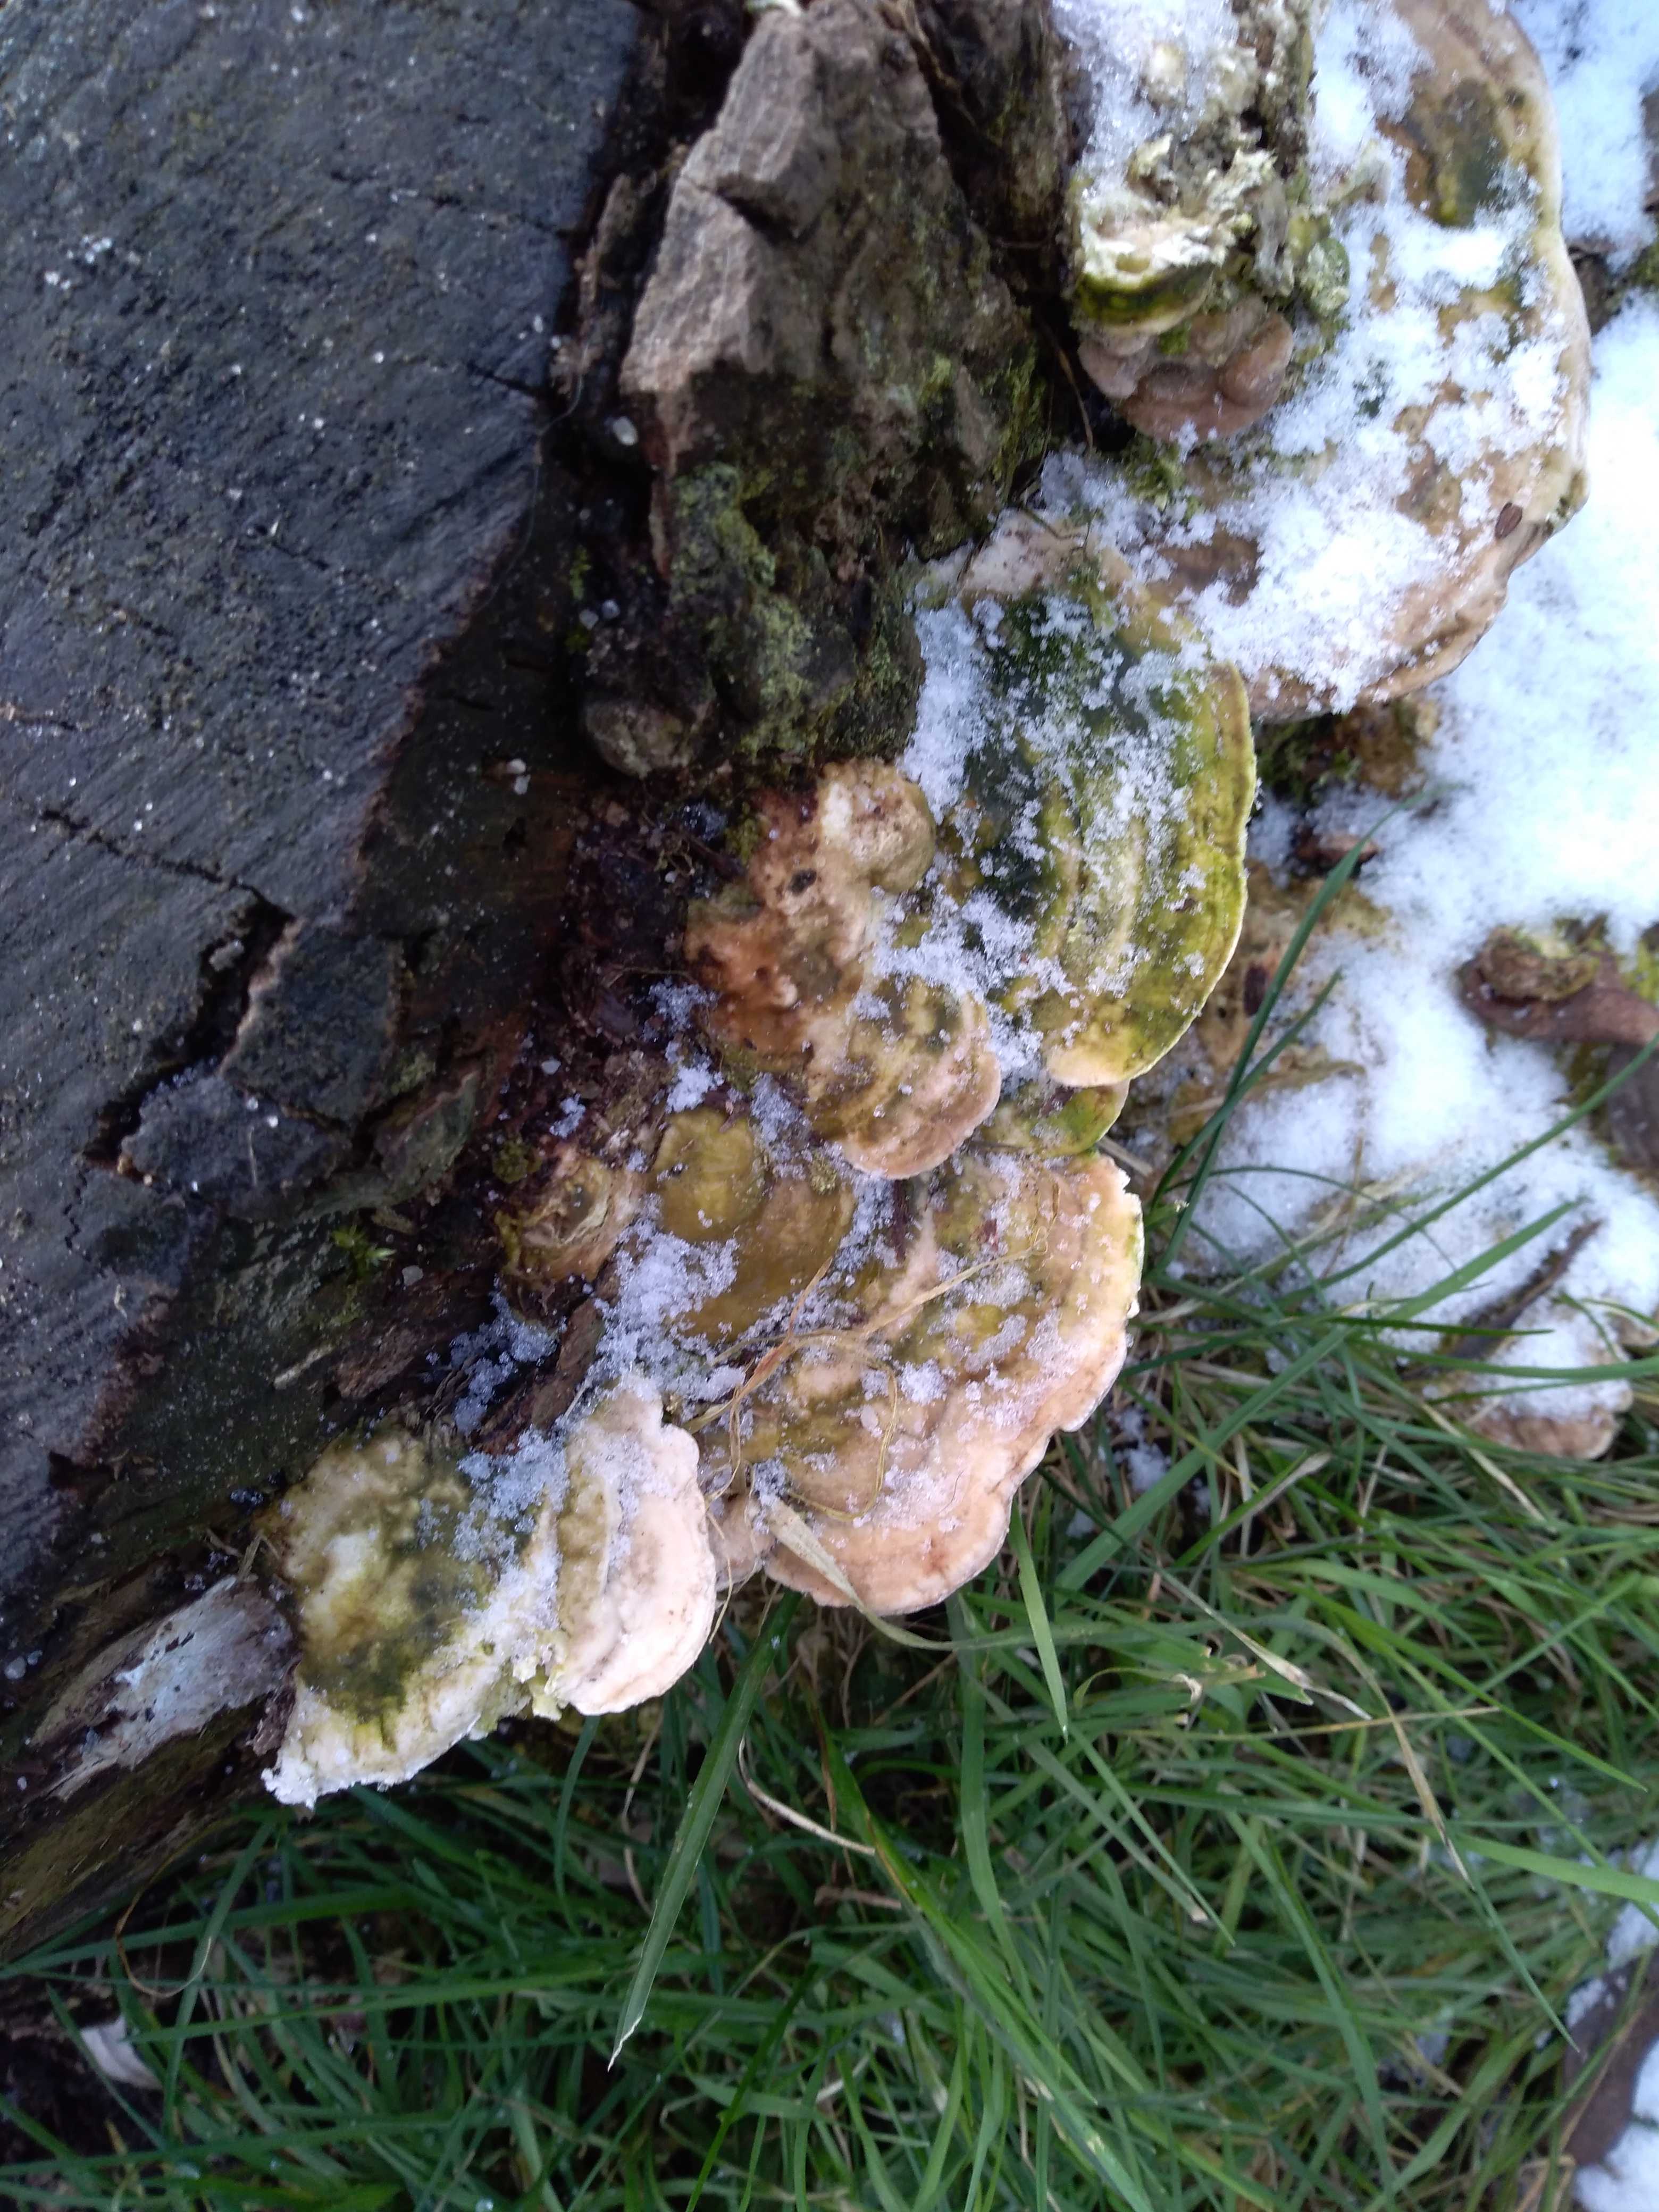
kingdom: Fungi
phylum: Basidiomycota
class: Agaricomycetes
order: Polyporales
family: Polyporaceae
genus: Trametes
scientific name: Trametes gibbosa
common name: puklet læderporesvamp
